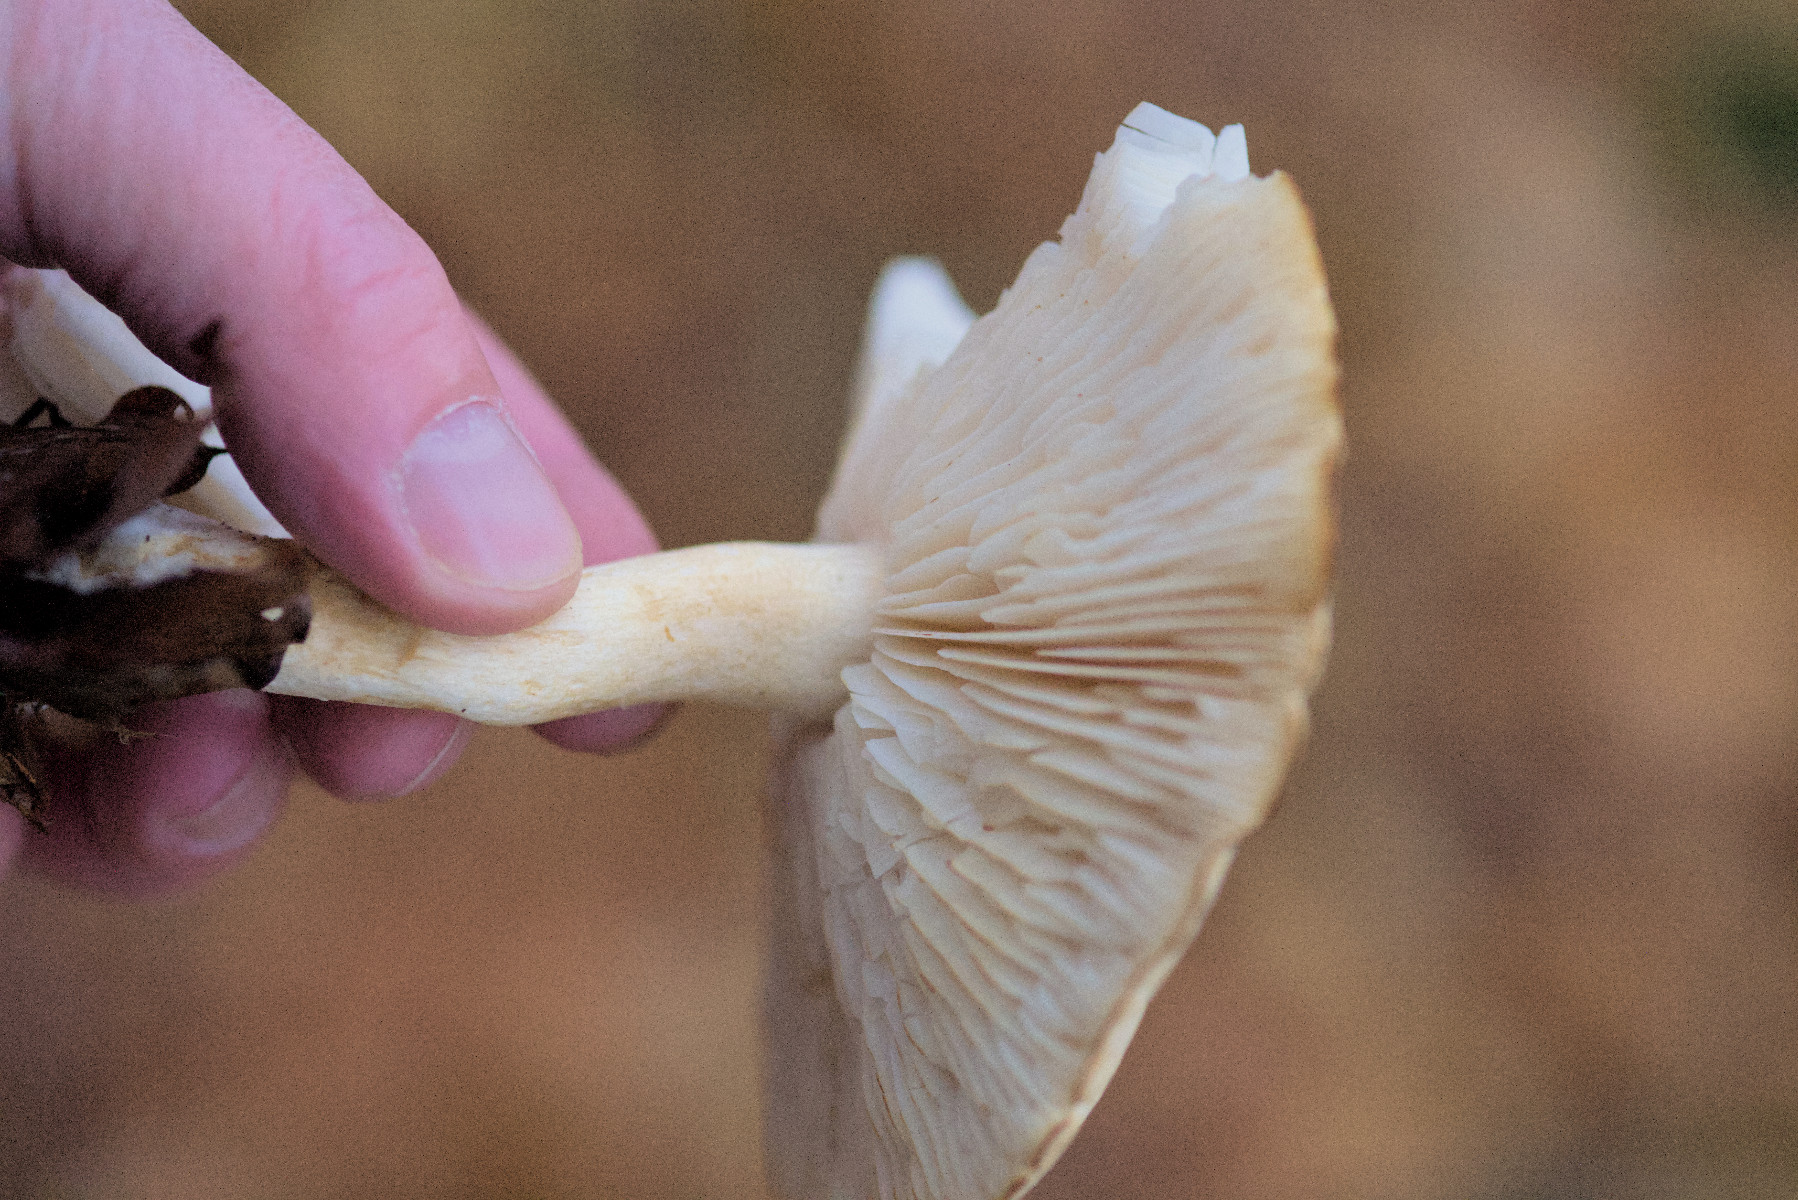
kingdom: Fungi
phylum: Basidiomycota
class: Agaricomycetes
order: Agaricales
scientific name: Agaricales
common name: champignonordenen
